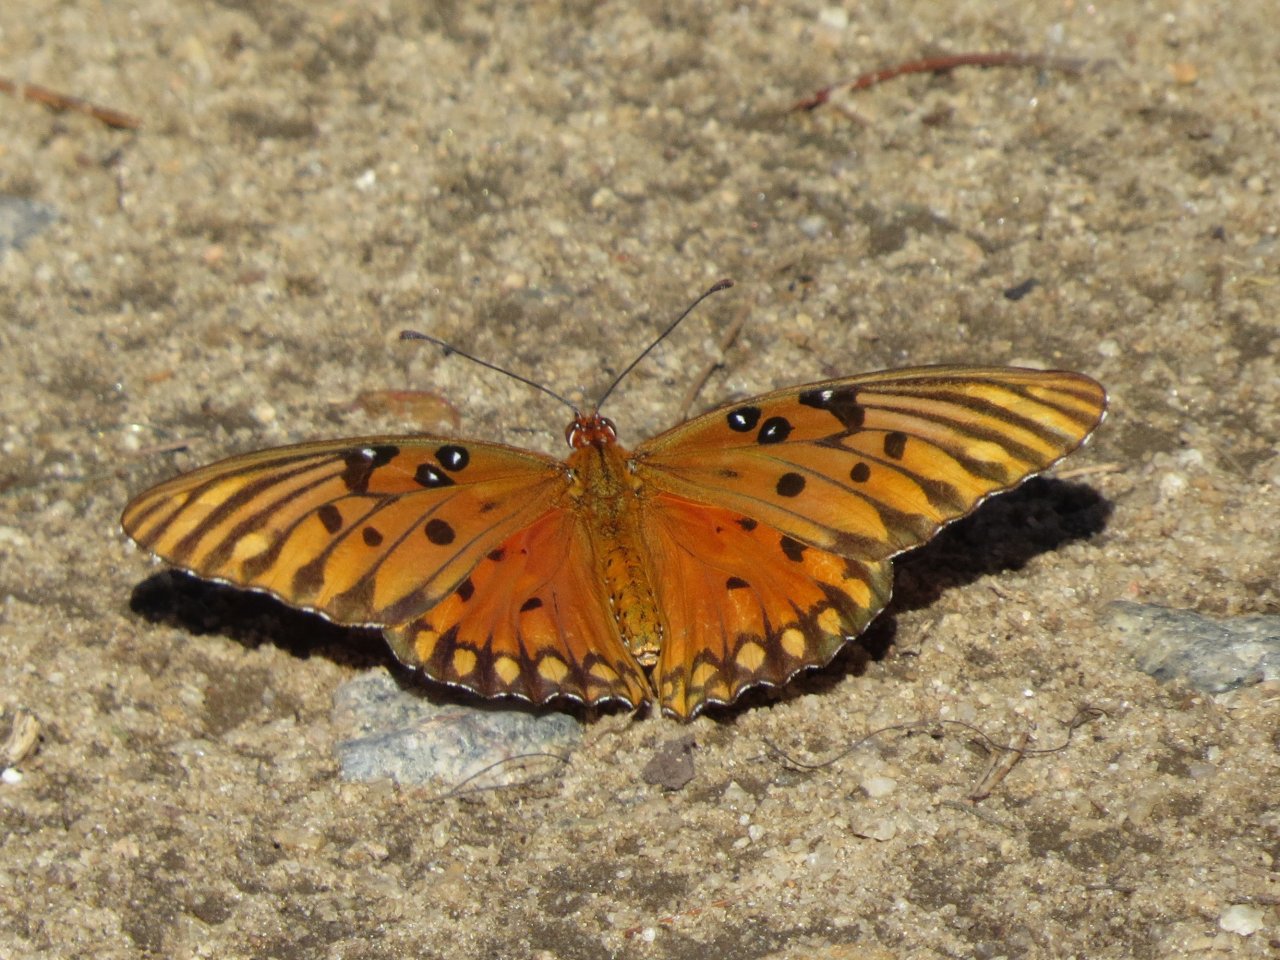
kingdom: Animalia
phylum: Arthropoda
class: Insecta
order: Lepidoptera
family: Nymphalidae
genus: Dione
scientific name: Dione vanillae
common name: Gulf Fritillary
